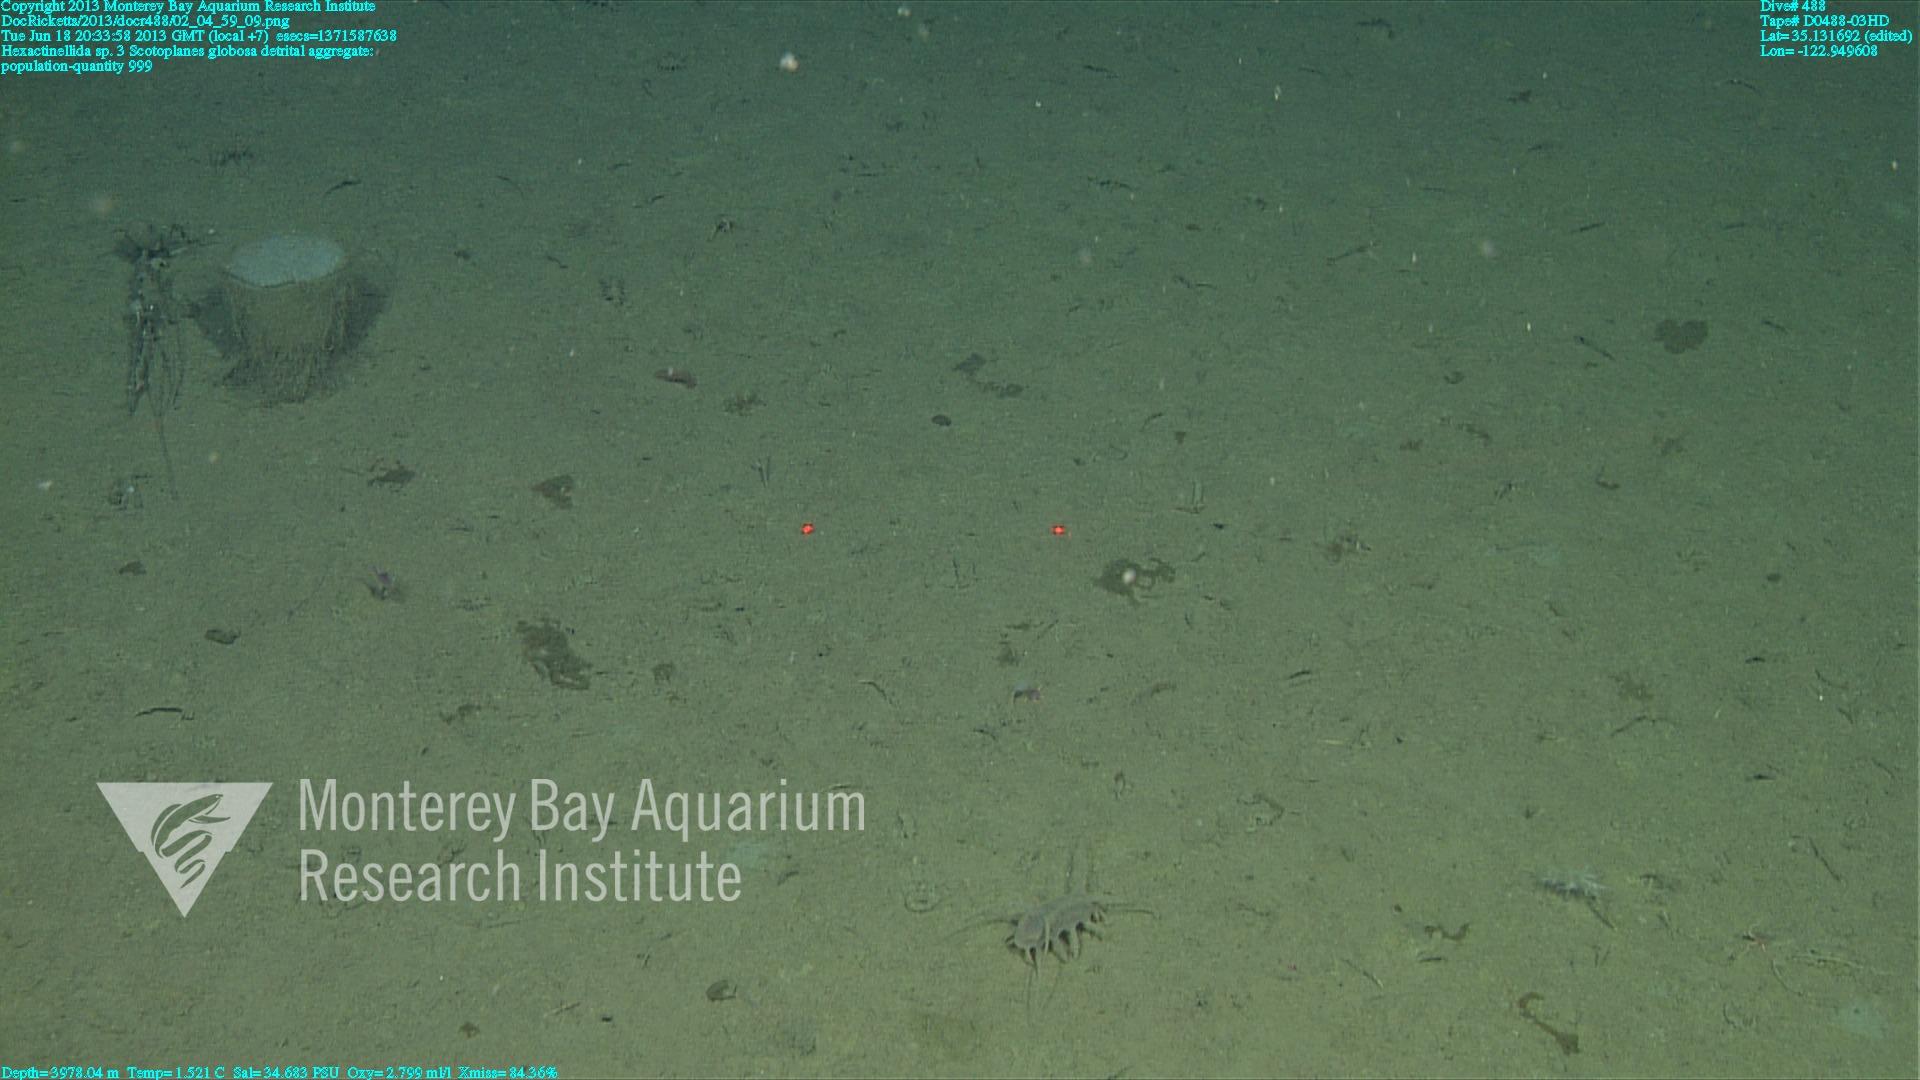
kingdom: Animalia
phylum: Porifera
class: Hexactinellida
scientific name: Hexactinellida
